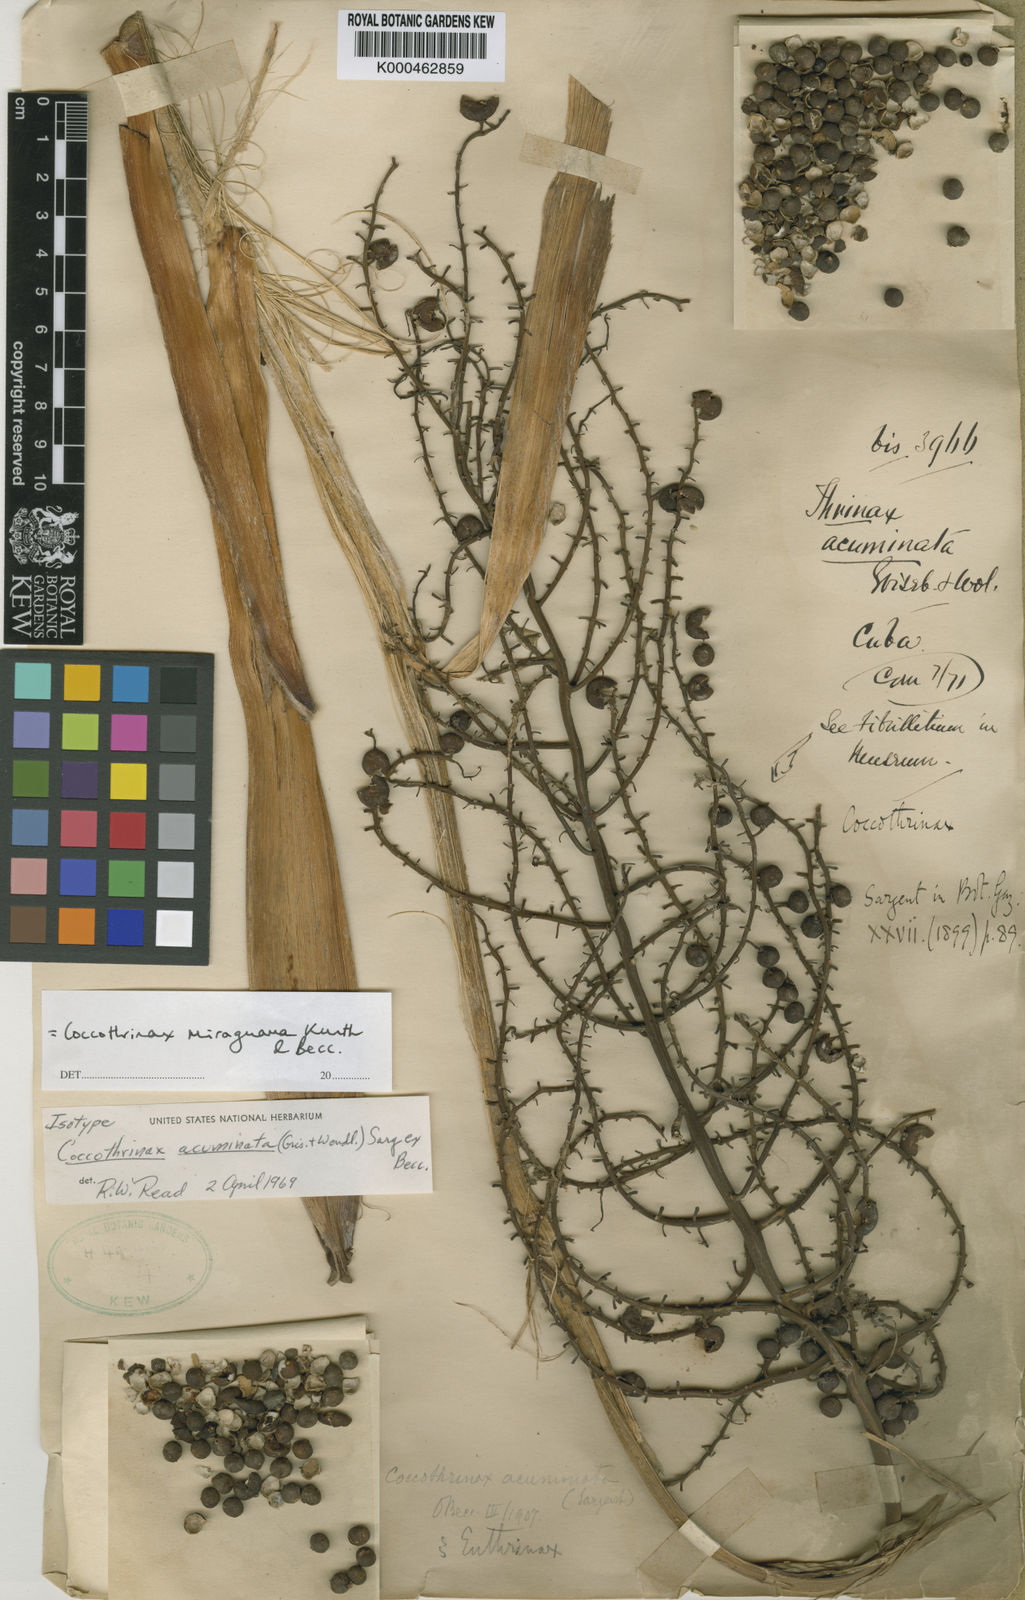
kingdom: Plantae
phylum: Tracheophyta
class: Liliopsida
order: Arecales
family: Arecaceae
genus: Coccothrinax
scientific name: Coccothrinax miraguama
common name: Miragua palm
